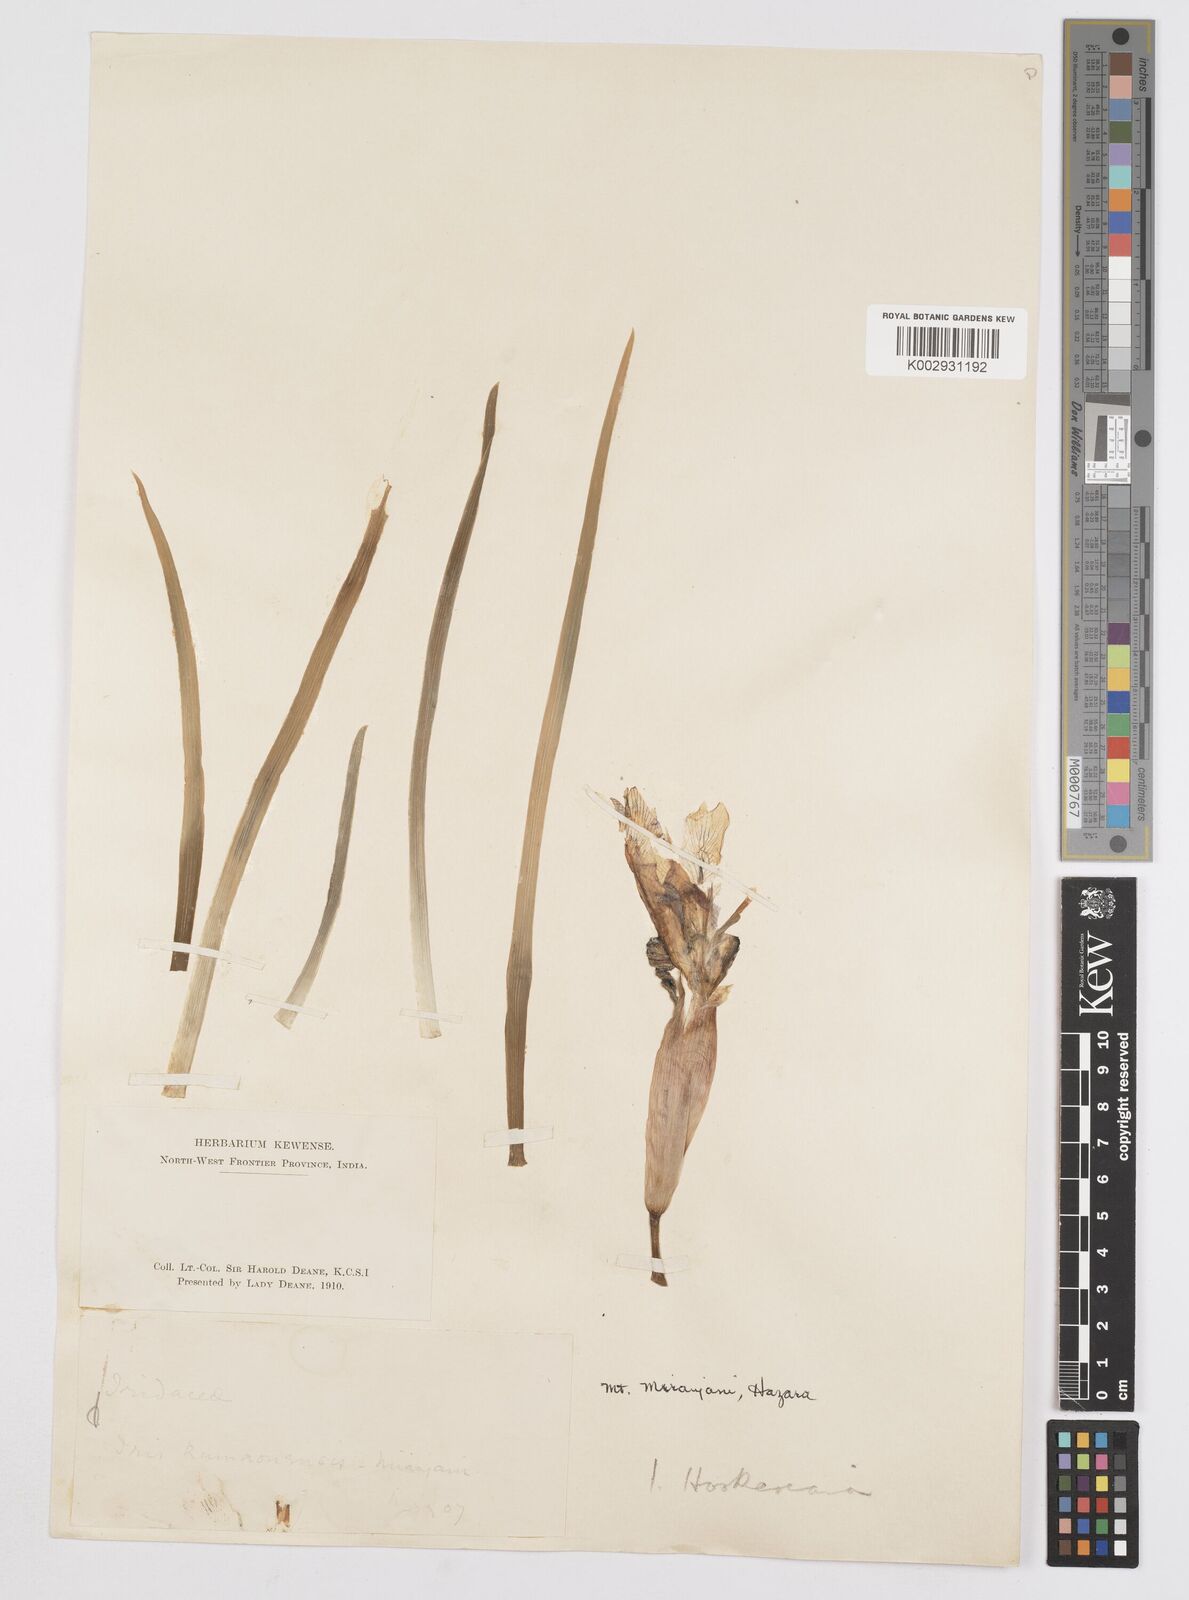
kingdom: Plantae
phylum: Tracheophyta
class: Liliopsida
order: Asparagales
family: Iridaceae
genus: Iris
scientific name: Iris hookeriana
